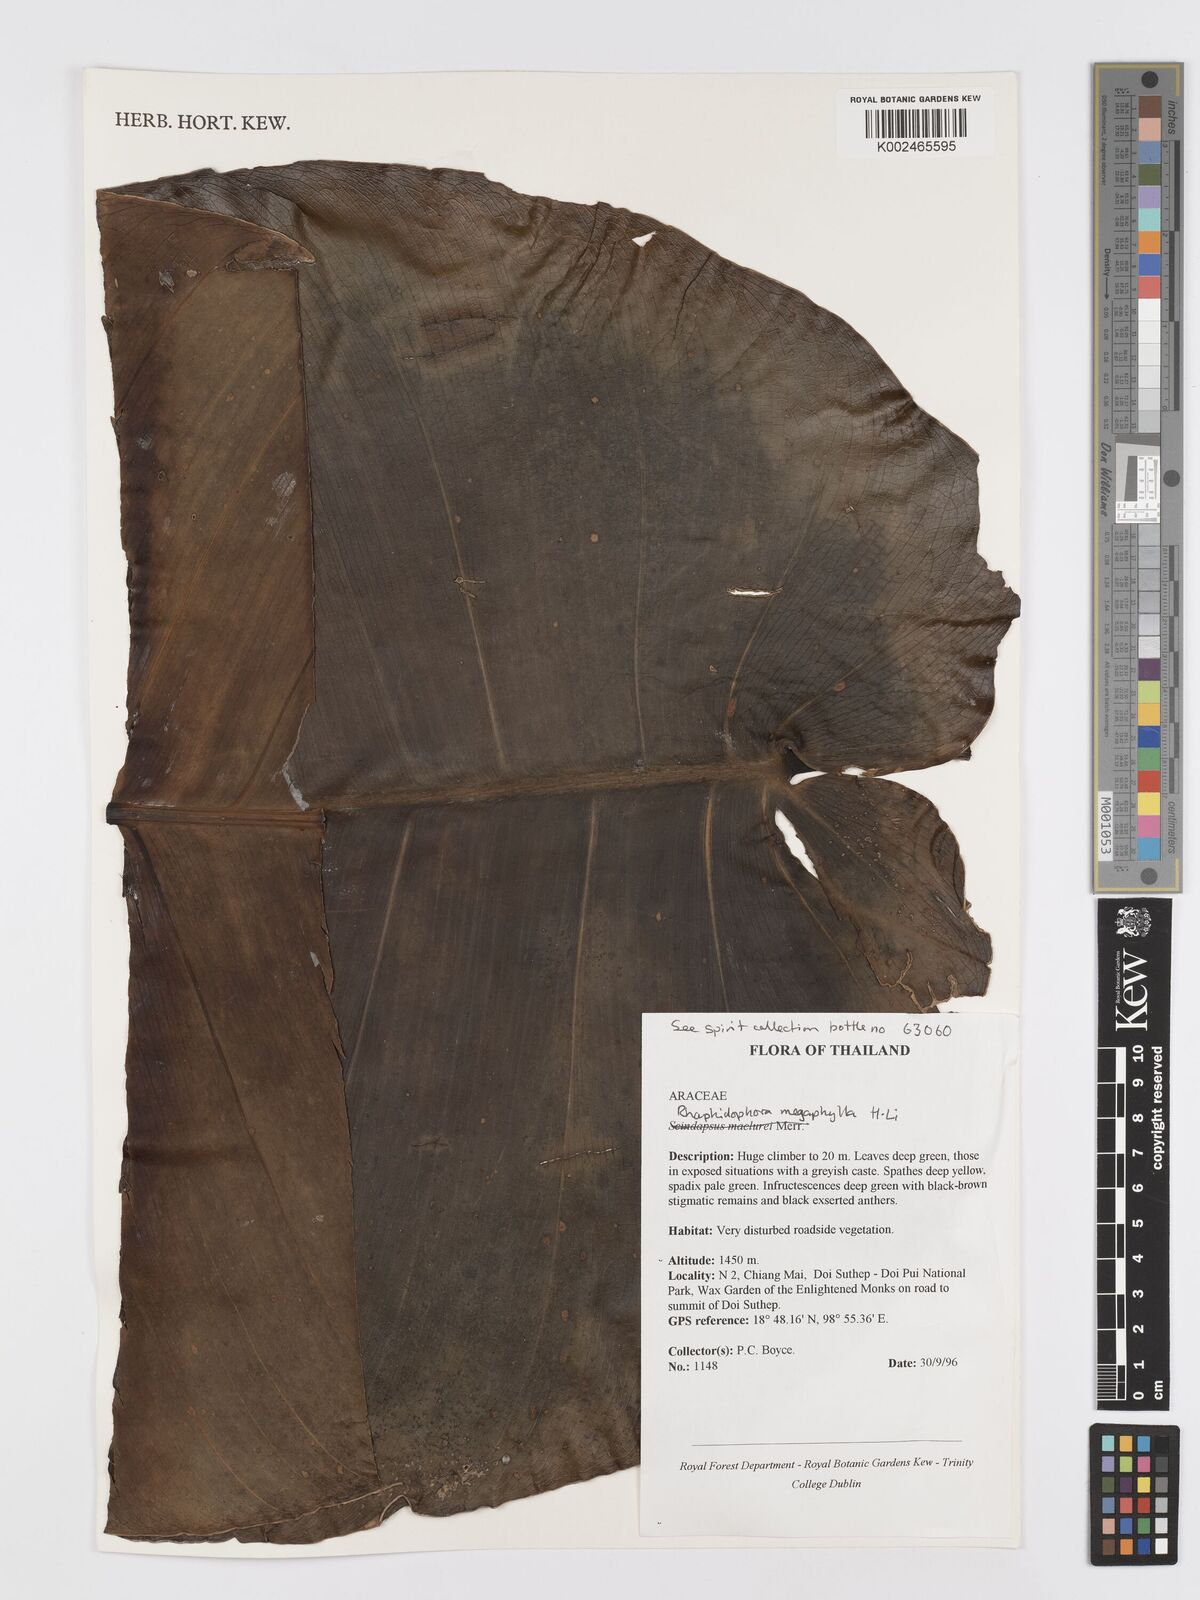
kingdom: Plantae
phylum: Tracheophyta
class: Liliopsida
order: Alismatales
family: Araceae
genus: Rhaphidophora
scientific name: Rhaphidophora megaphylla
